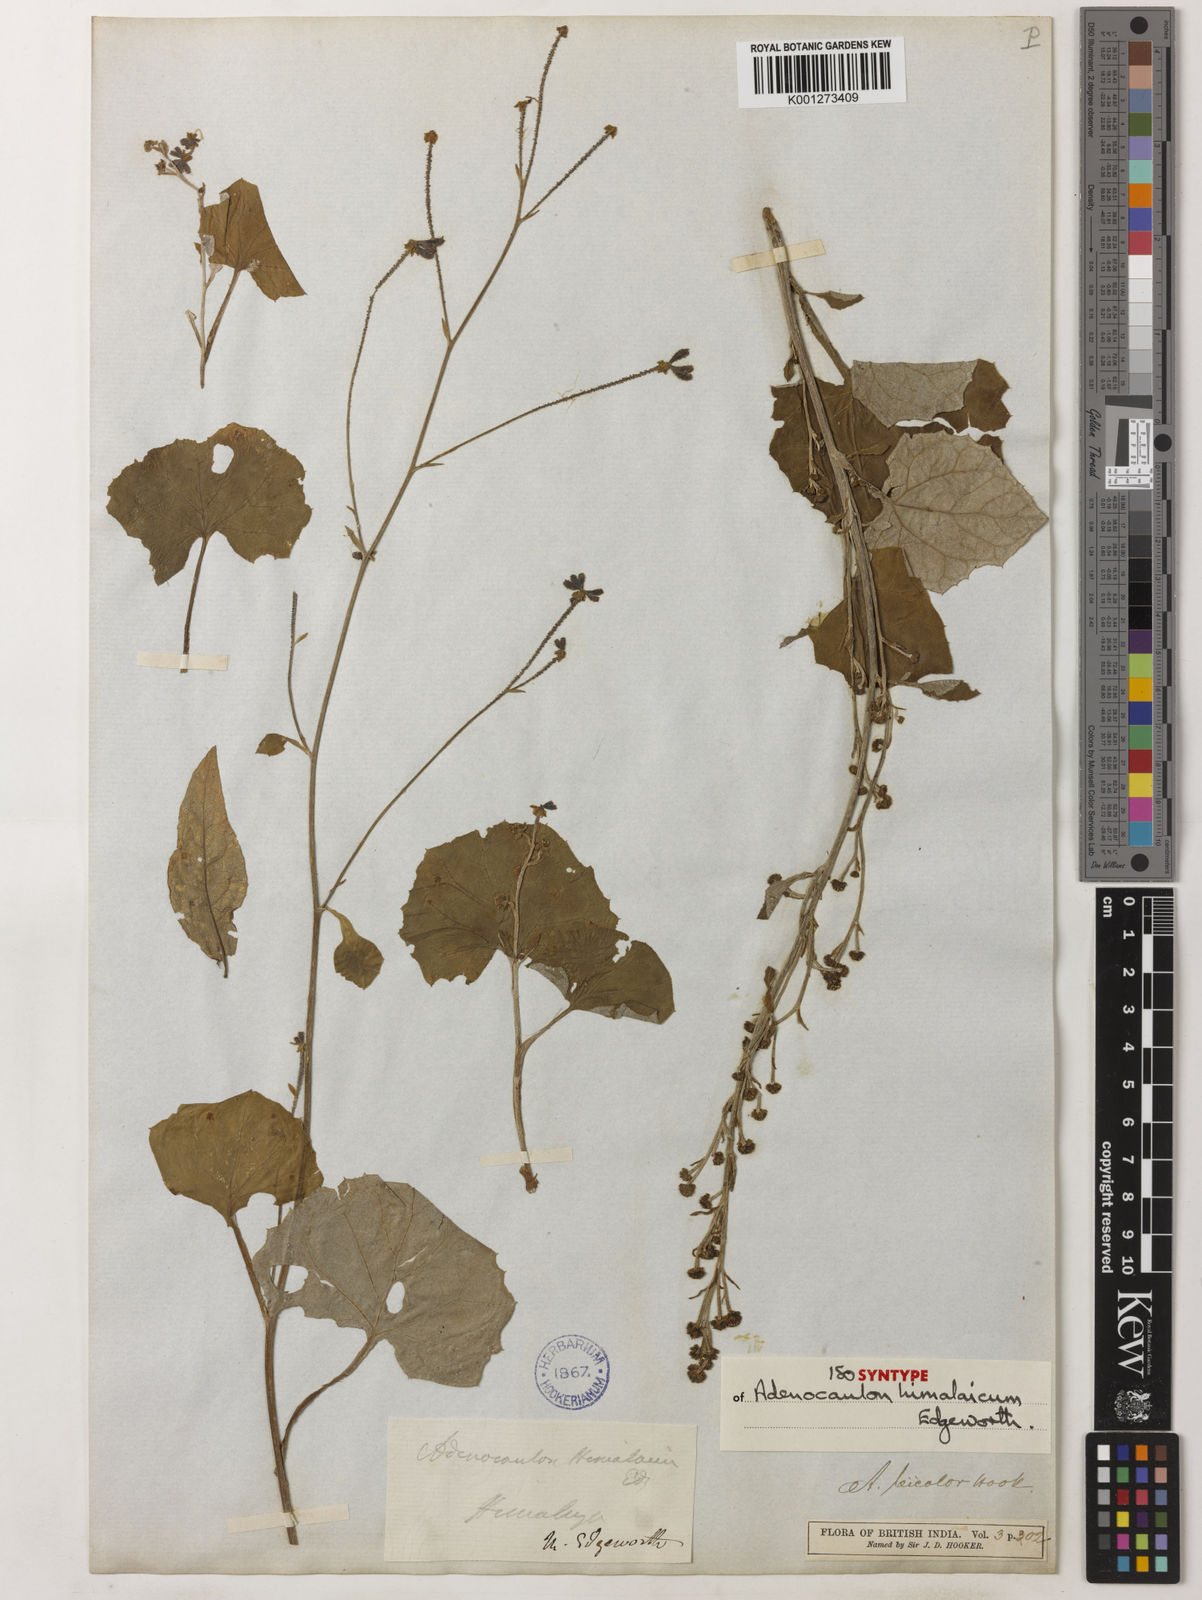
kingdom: Plantae
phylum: Tracheophyta
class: Magnoliopsida
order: Asterales
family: Asteraceae
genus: Adenocaulon
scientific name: Adenocaulon himalaicum
